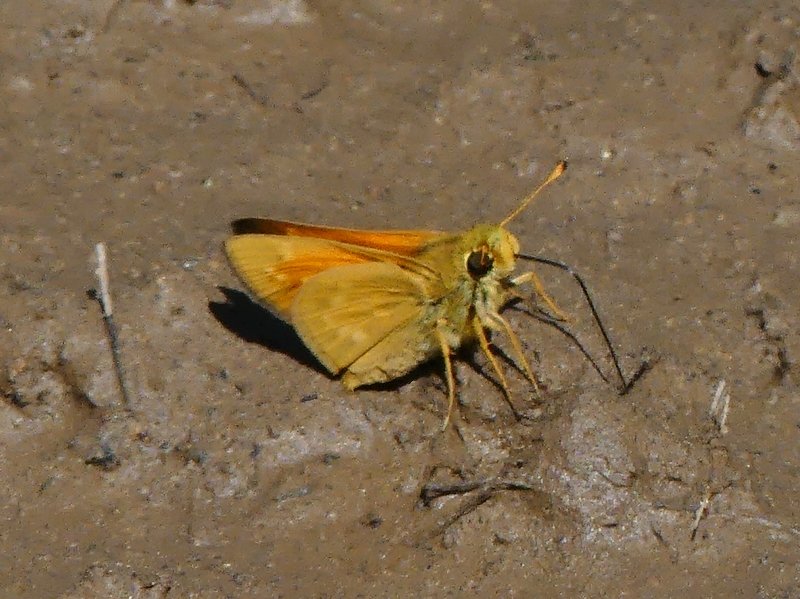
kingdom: Animalia
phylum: Arthropoda
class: Insecta
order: Lepidoptera
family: Hesperiidae
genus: Hesperia
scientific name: Hesperia sassacus
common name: Sassacus Skipper
